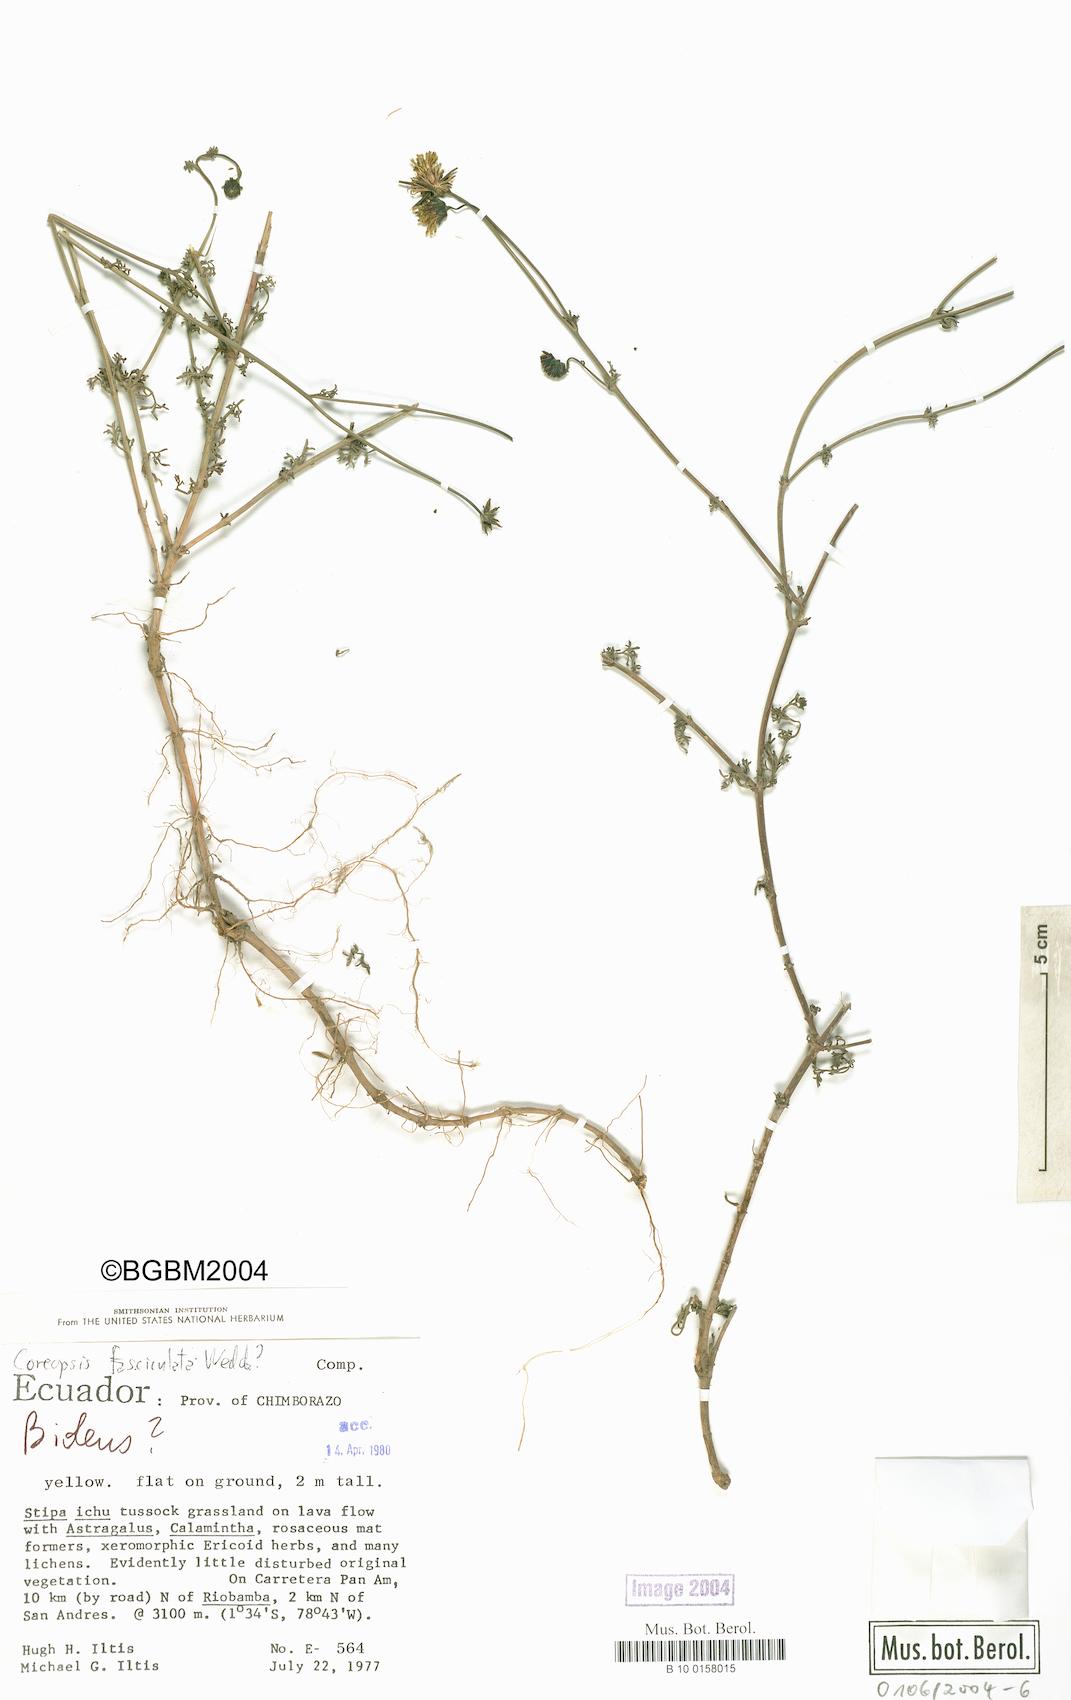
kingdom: Plantae
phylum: Tracheophyta
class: Magnoliopsida
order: Asterales
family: Asteraceae
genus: Coreopsis
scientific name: Coreopsis fasciculata
